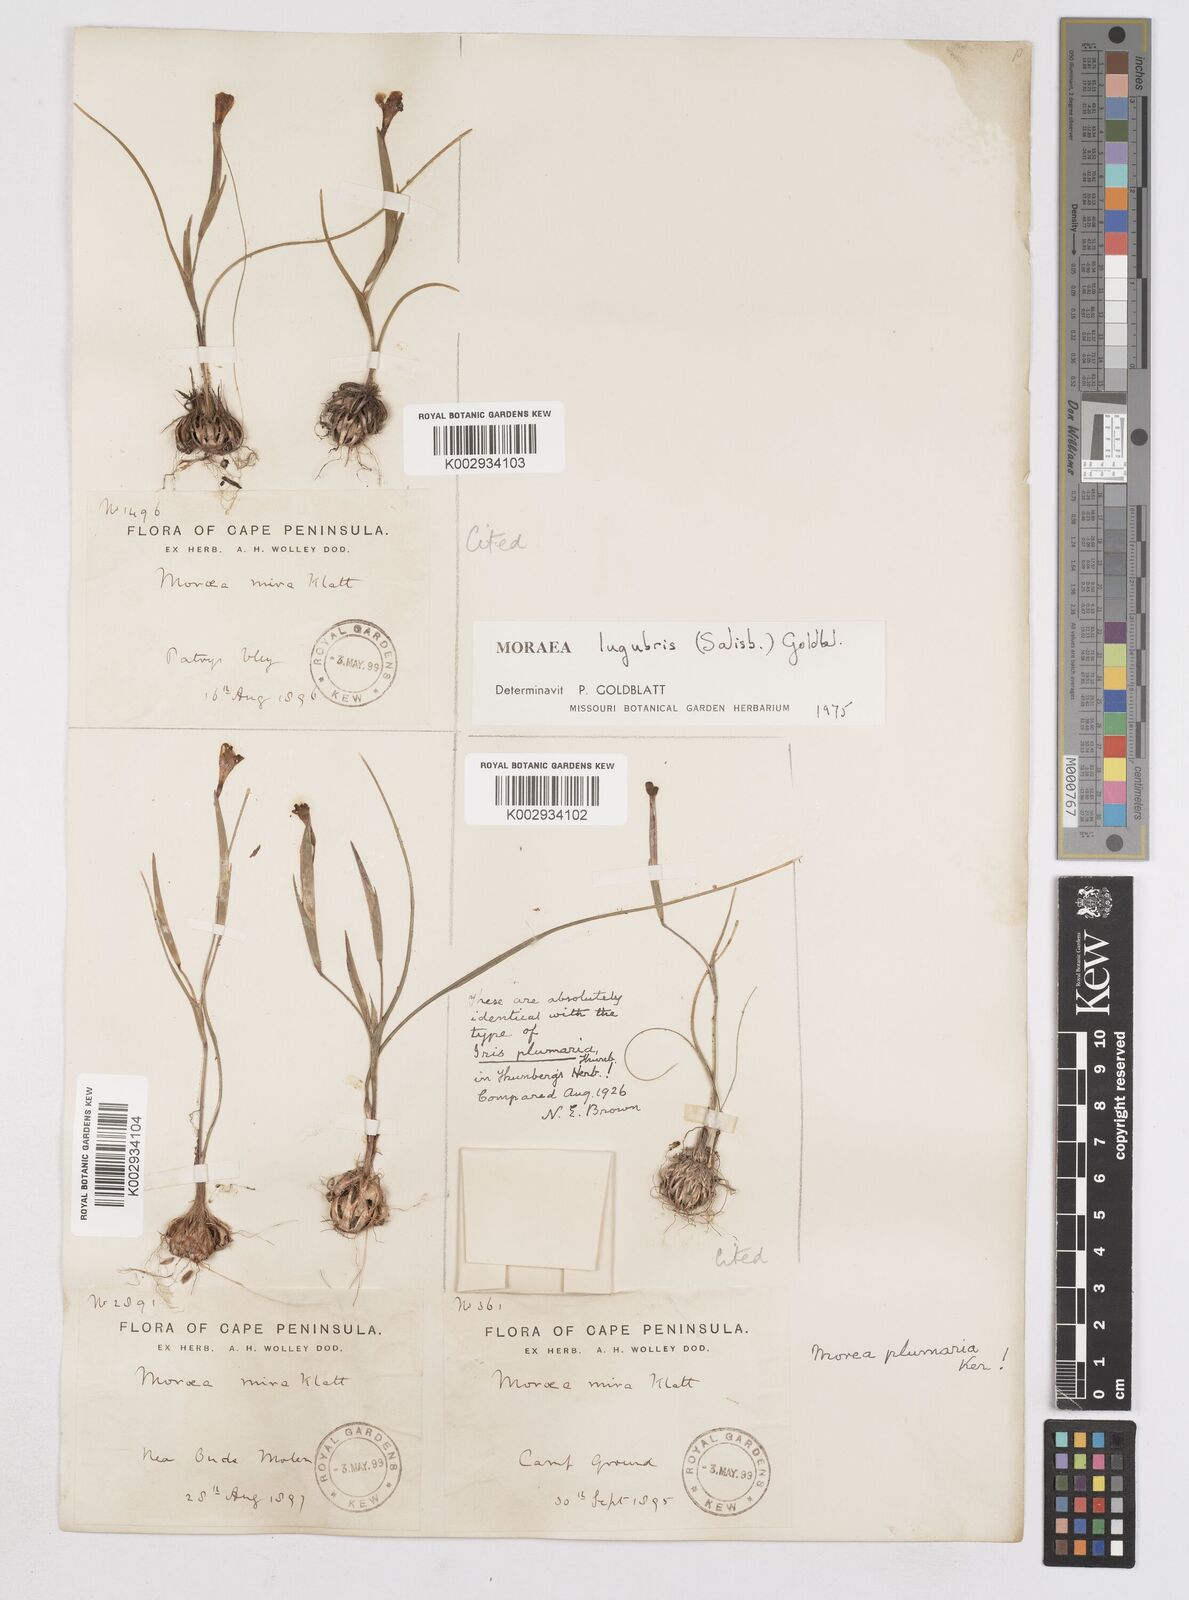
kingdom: Plantae
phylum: Tracheophyta
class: Liliopsida
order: Asparagales
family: Iridaceae
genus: Moraea
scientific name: Moraea lugubris
